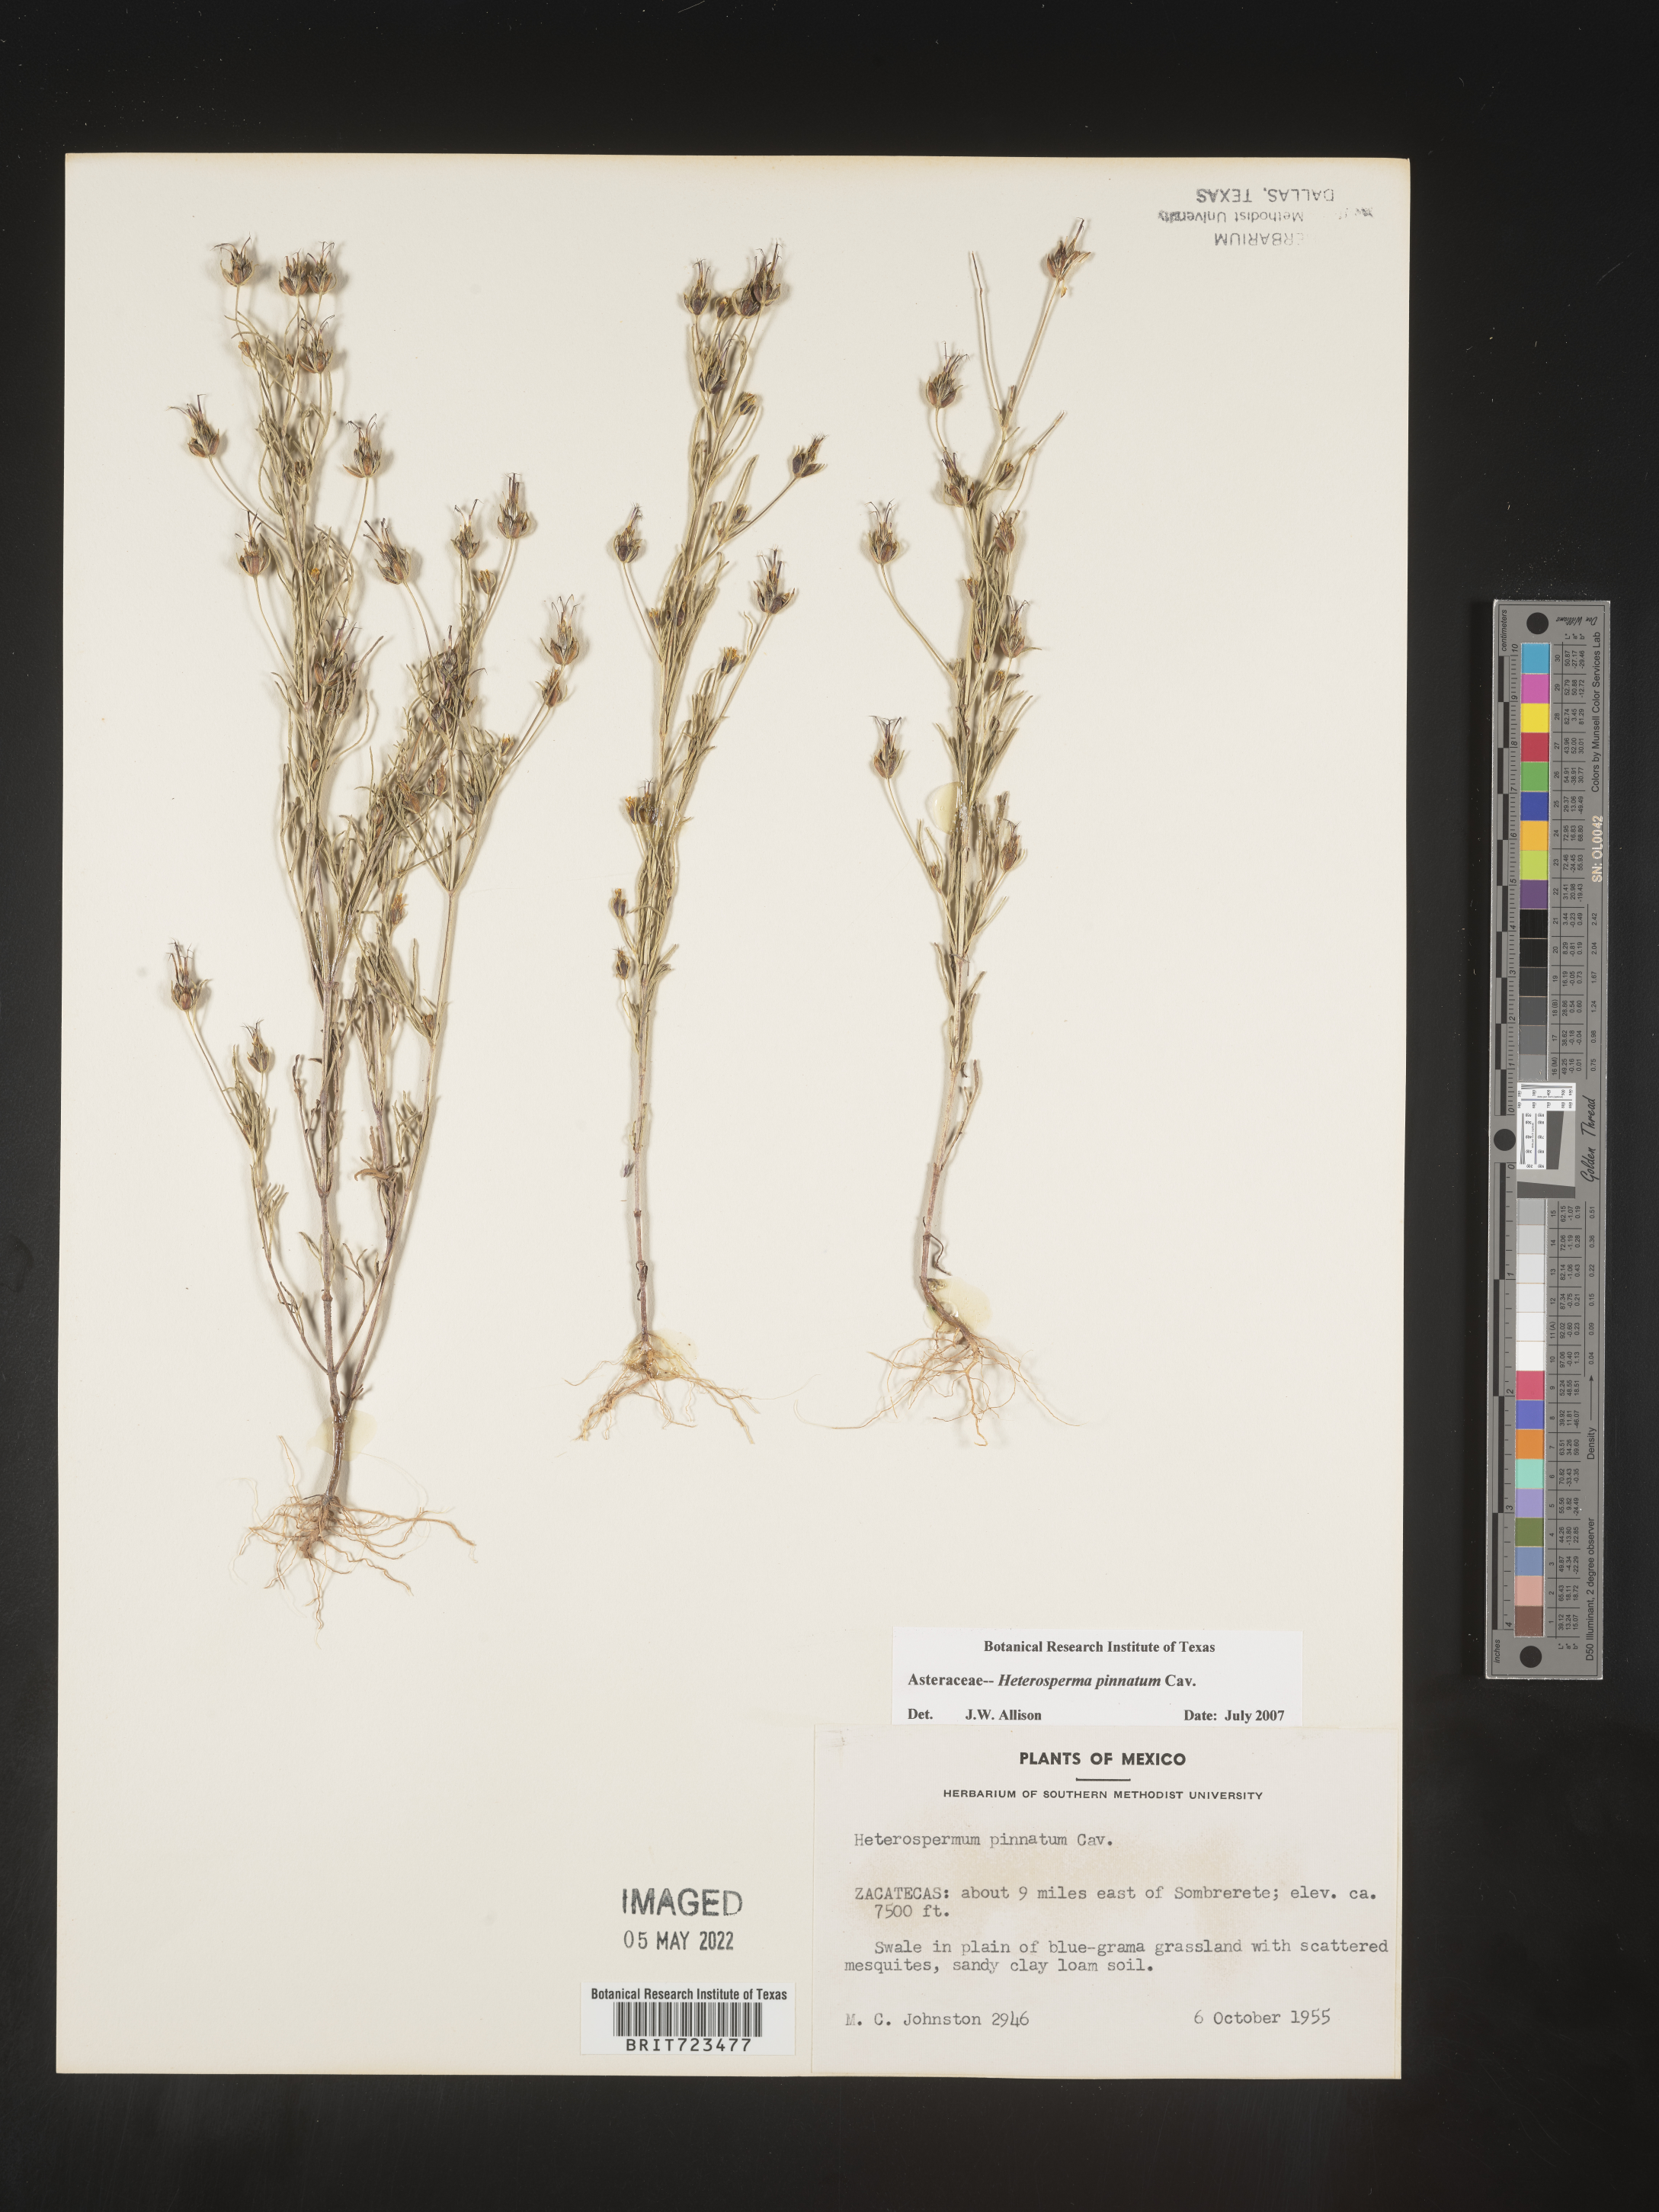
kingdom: Plantae
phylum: Tracheophyta
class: Magnoliopsida
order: Asterales
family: Asteraceae
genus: Heterosperma
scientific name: Heterosperma
